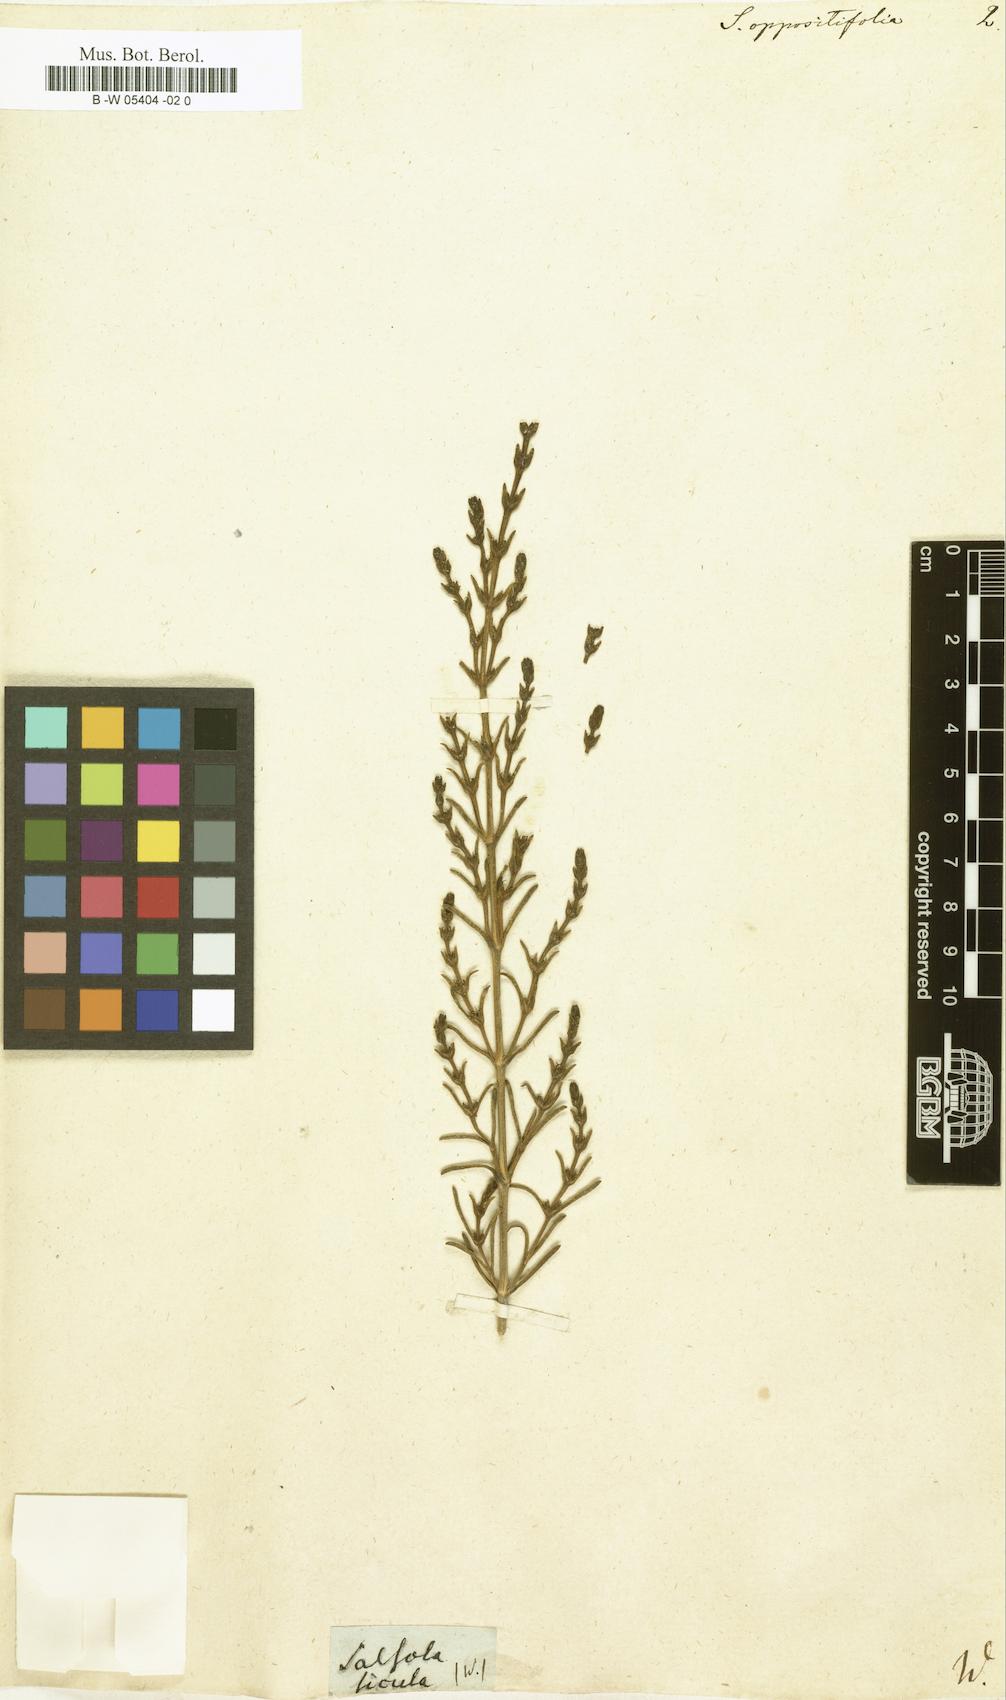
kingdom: Plantae
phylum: Tracheophyta
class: Magnoliopsida
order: Caryophyllales
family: Amaranthaceae
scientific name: Amaranthaceae
